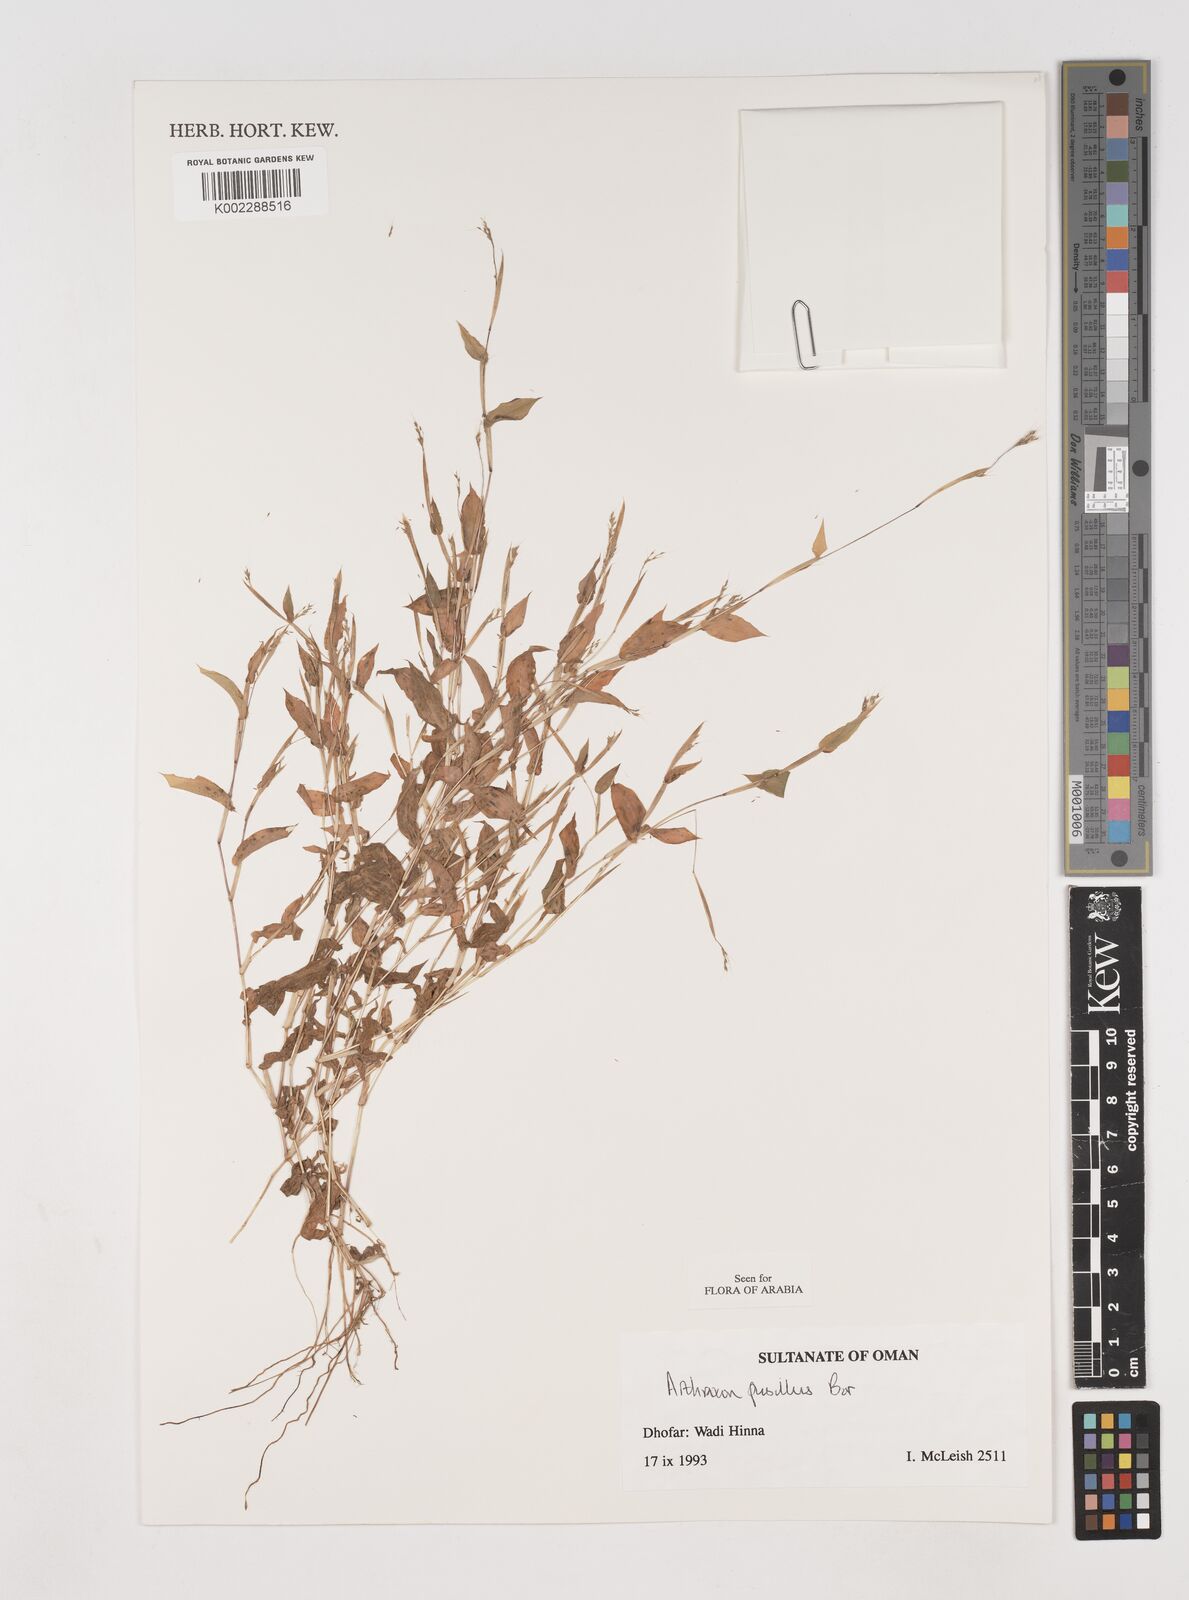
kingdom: Plantae
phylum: Tracheophyta
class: Liliopsida
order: Poales
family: Poaceae
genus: Arthraxon
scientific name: Arthraxon junnarensis
